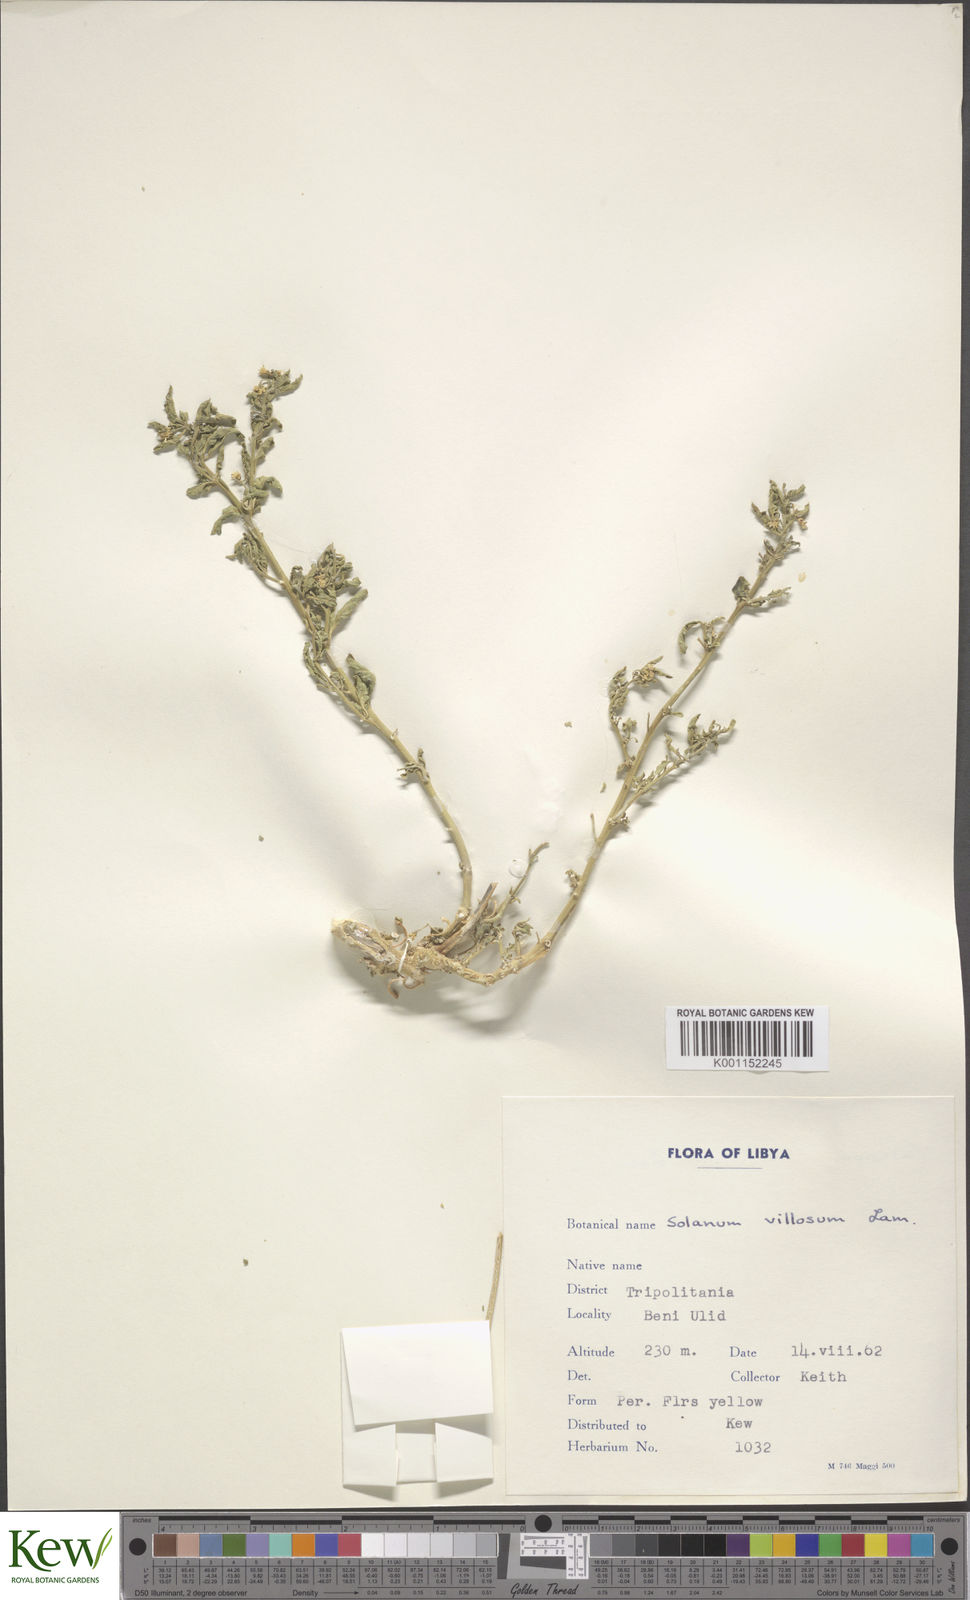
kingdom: Plantae
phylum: Tracheophyta
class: Magnoliopsida
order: Solanales
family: Solanaceae
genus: Solanum
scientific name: Solanum villosum
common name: Red nightshade
